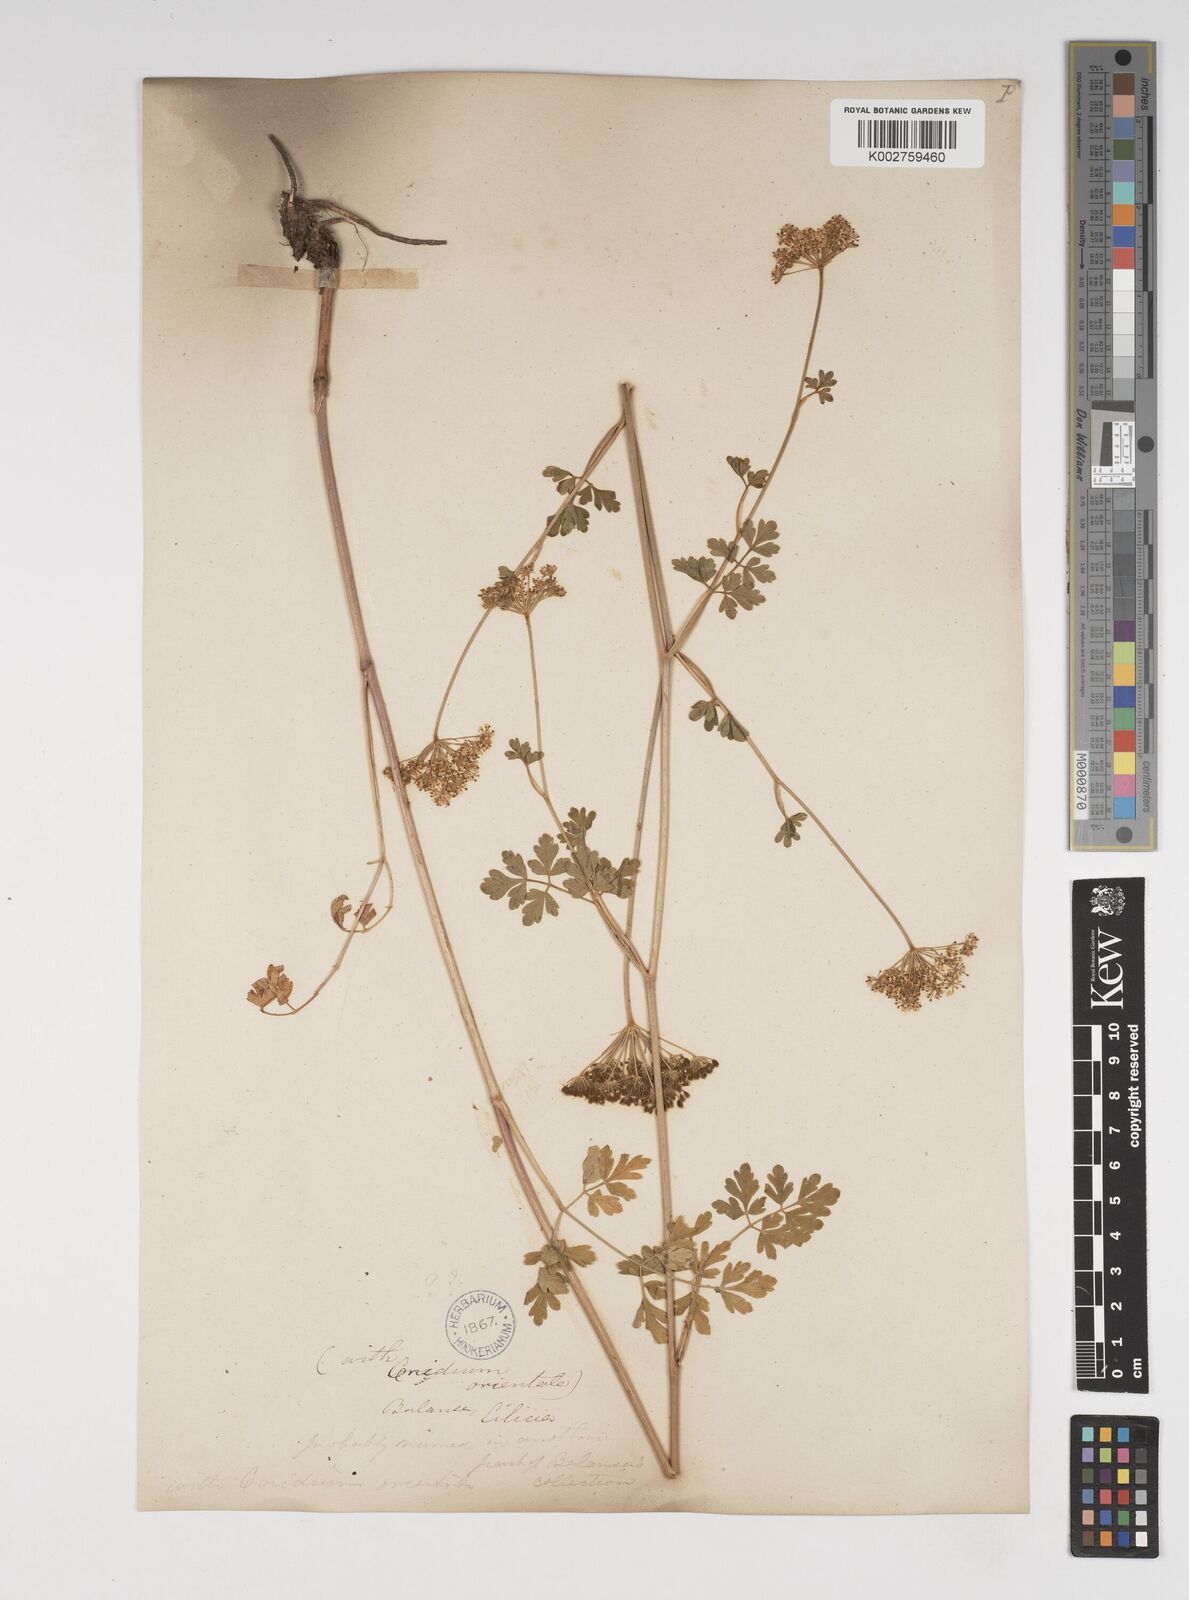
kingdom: Plantae
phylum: Tracheophyta
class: Magnoliopsida
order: Apiales
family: Apiaceae
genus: Katapsuxis
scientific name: Katapsuxis silaifolia
